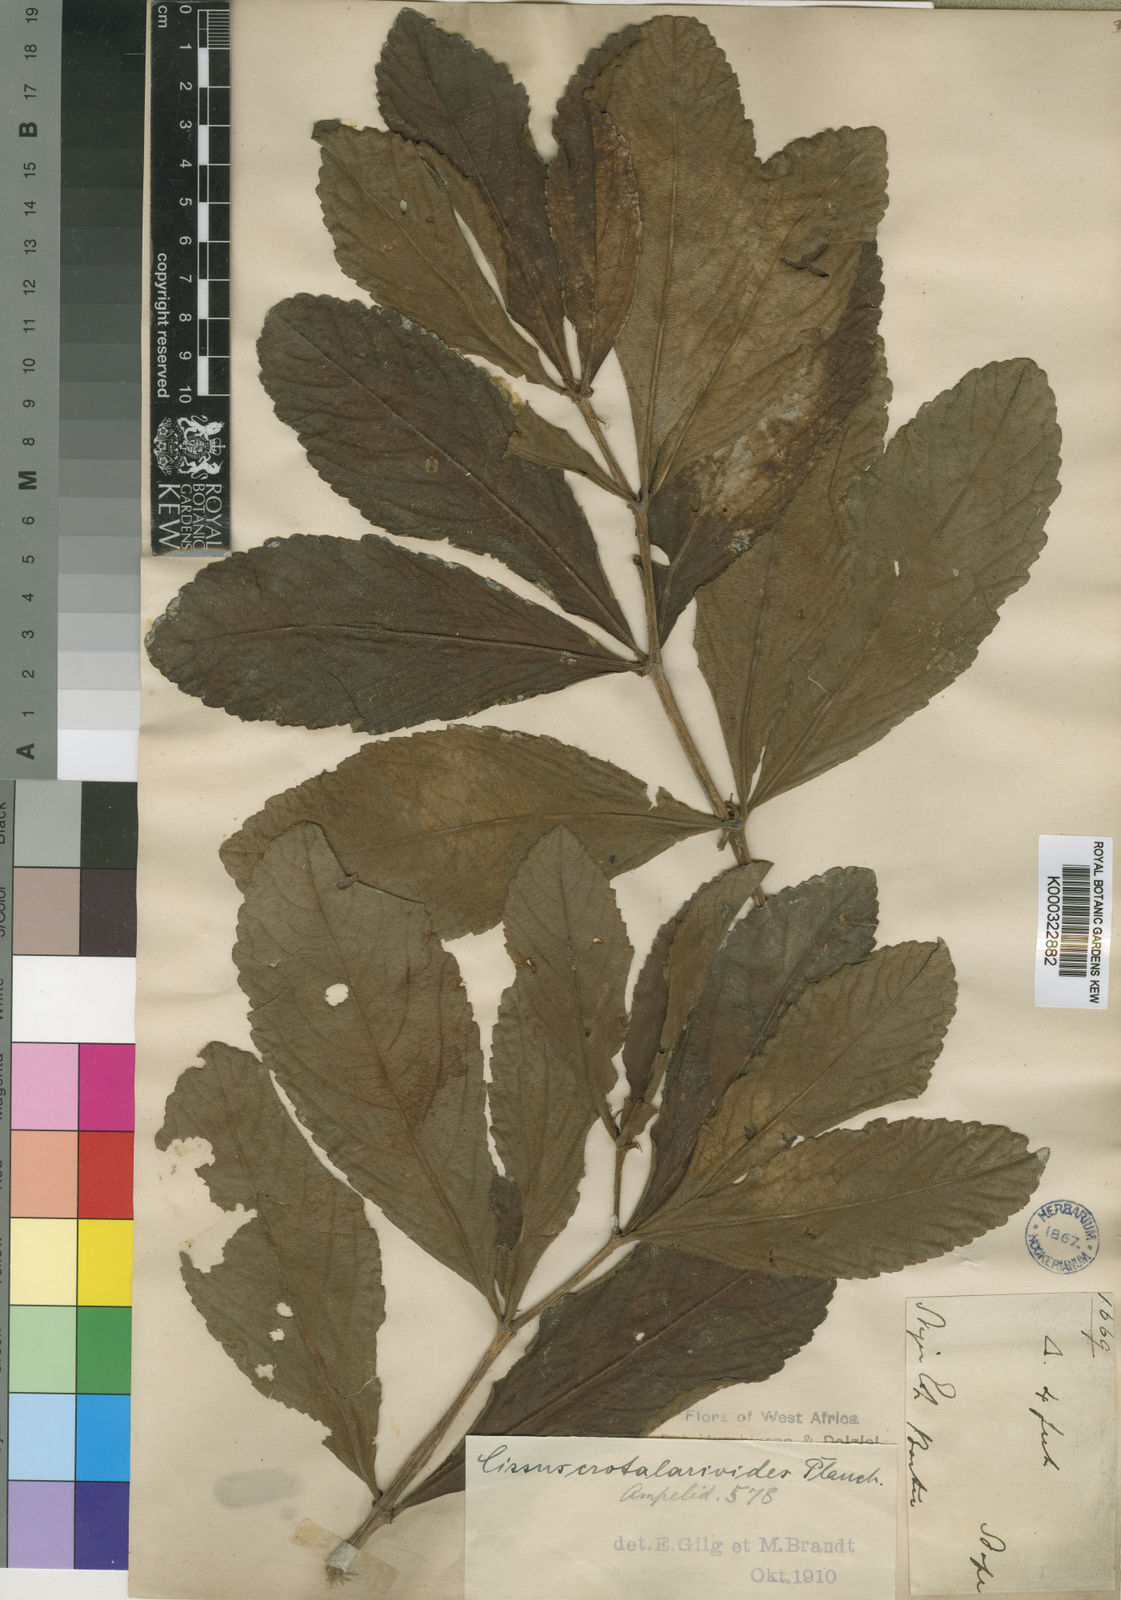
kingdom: Plantae
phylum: Tracheophyta
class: Magnoliopsida
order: Vitales
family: Vitaceae
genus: Cyphostemma
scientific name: Cyphostemma
